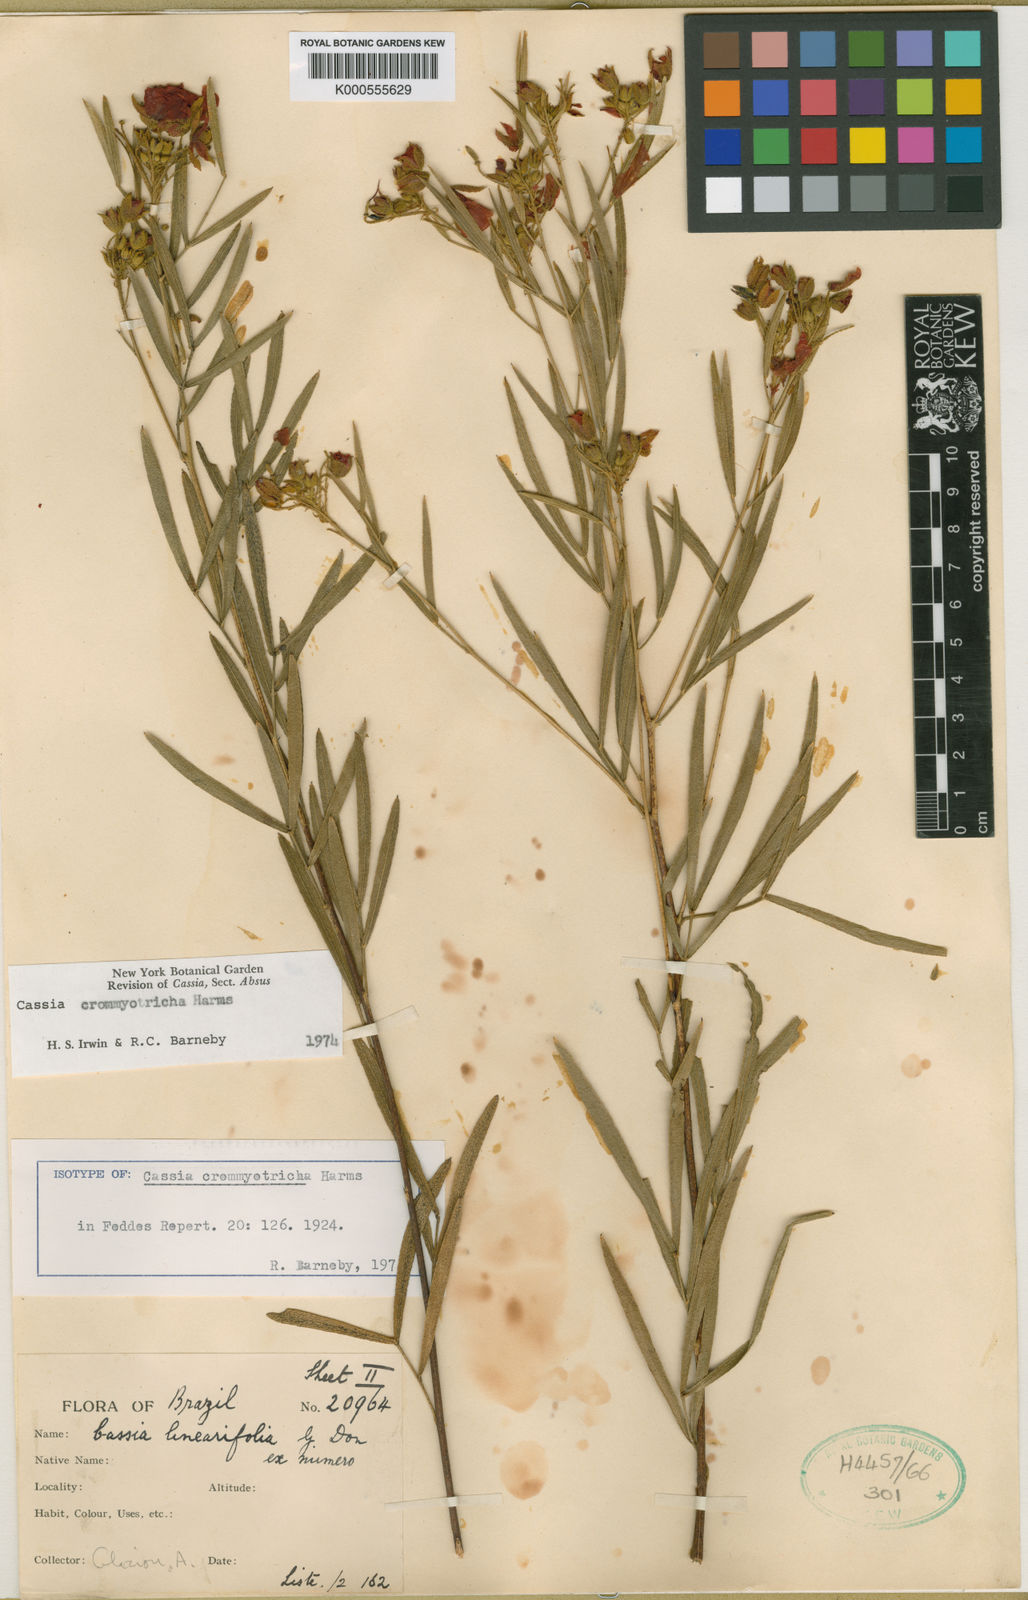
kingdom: Plantae
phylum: Tracheophyta
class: Magnoliopsida
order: Fabales
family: Fabaceae
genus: Chamaecrista
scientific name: Chamaecrista crommyotricha
